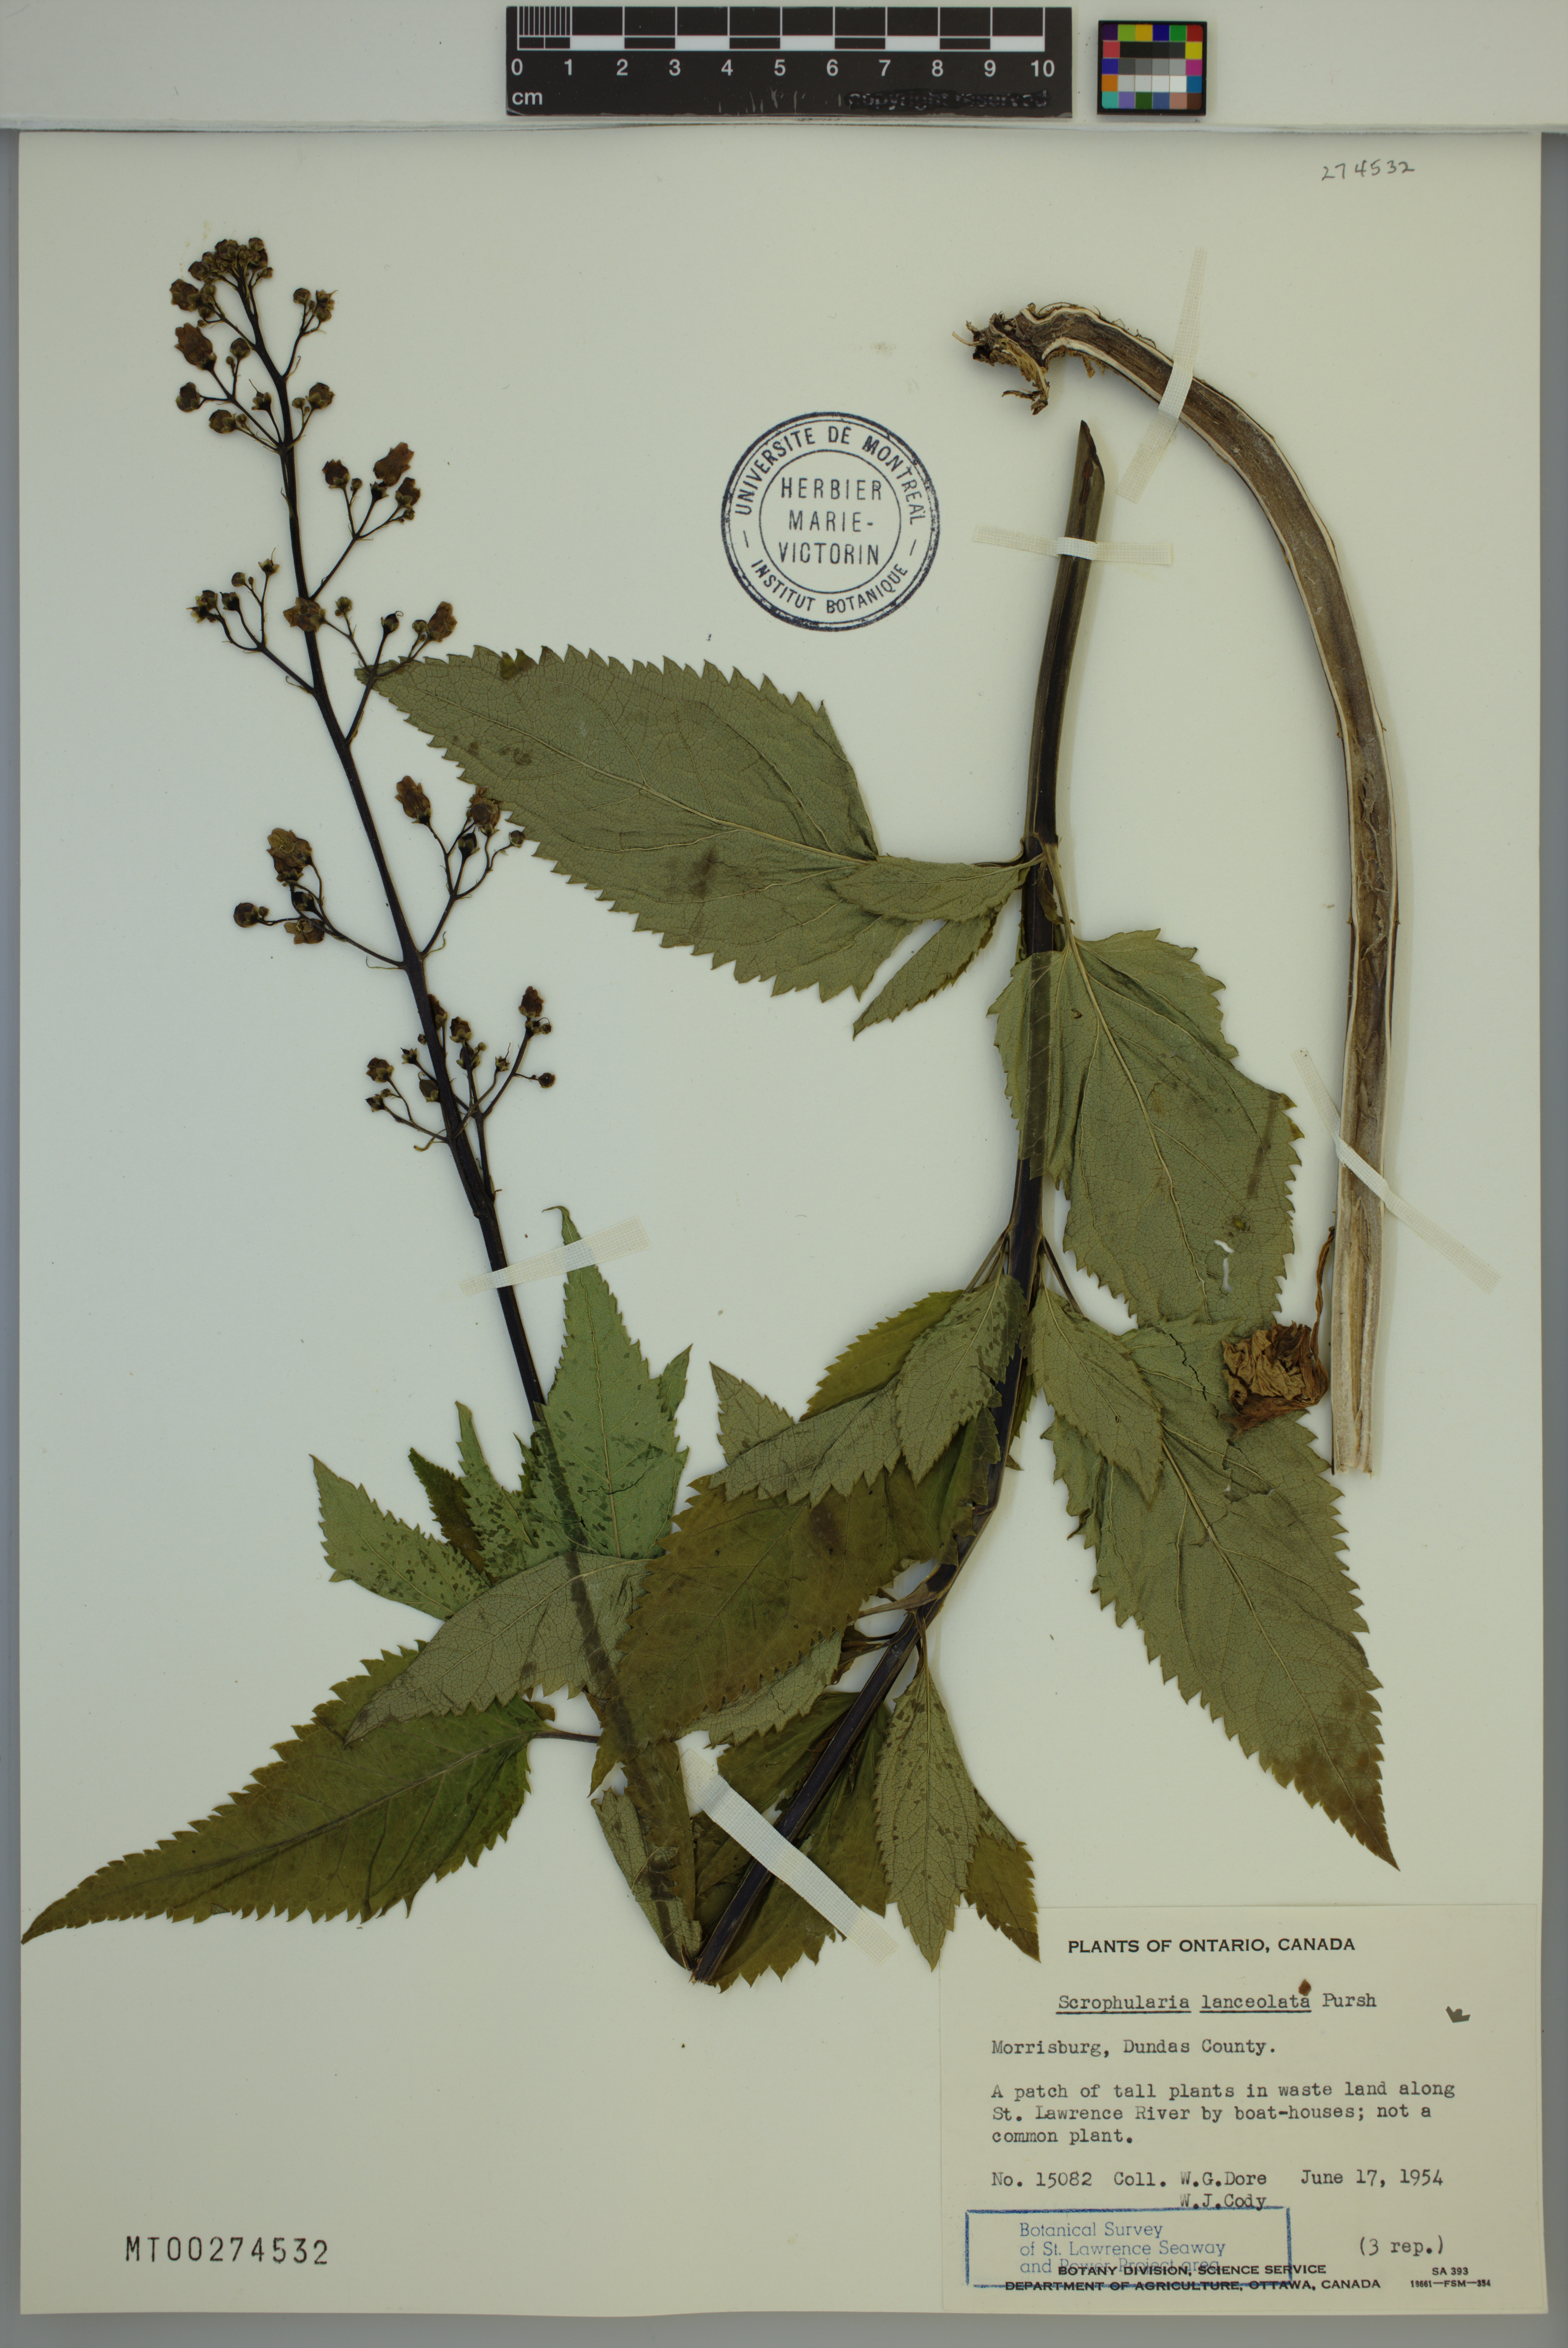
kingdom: Plantae
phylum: Tracheophyta
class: Magnoliopsida
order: Lamiales
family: Scrophulariaceae
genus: Scrophularia
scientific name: Scrophularia lanceolata
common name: American figwort
